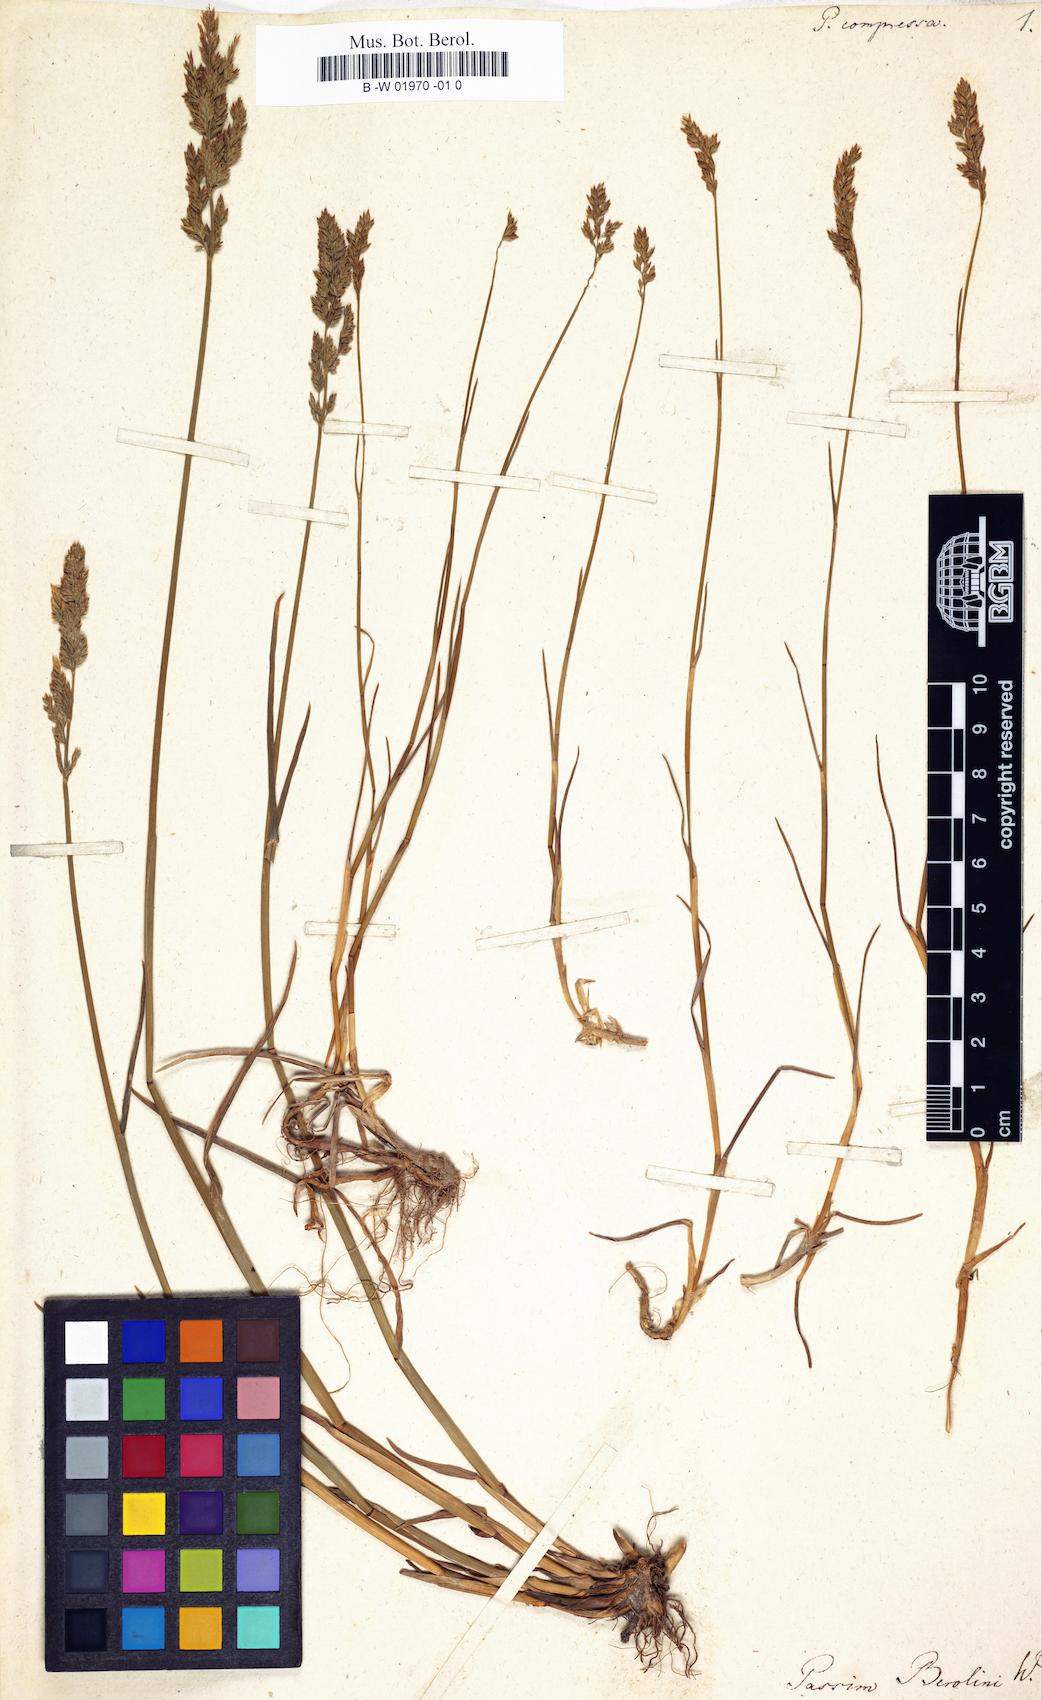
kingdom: Plantae
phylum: Tracheophyta
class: Liliopsida
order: Poales
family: Poaceae
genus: Poa
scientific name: Poa compressa
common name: Canada bluegrass
